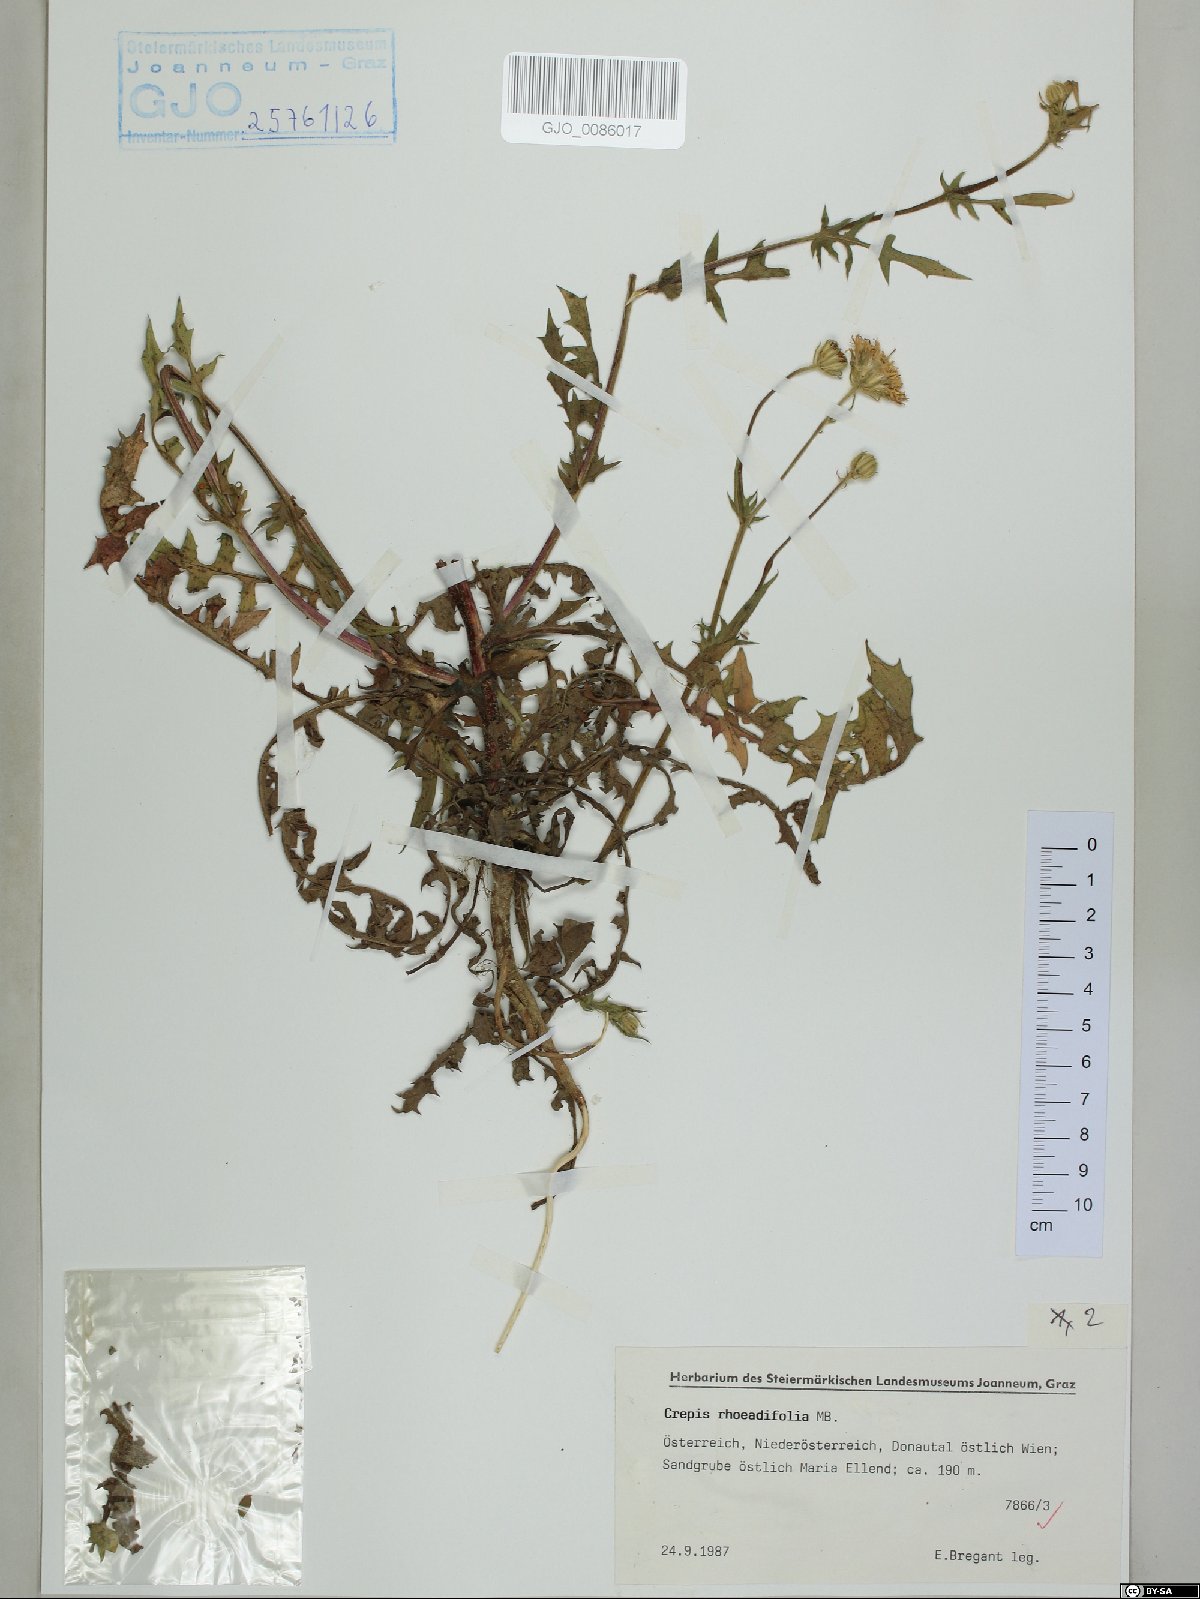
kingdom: Plantae
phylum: Tracheophyta
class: Magnoliopsida
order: Asterales
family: Asteraceae
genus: Crepis
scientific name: Crepis foetida
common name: Stinking hawk's-beard
